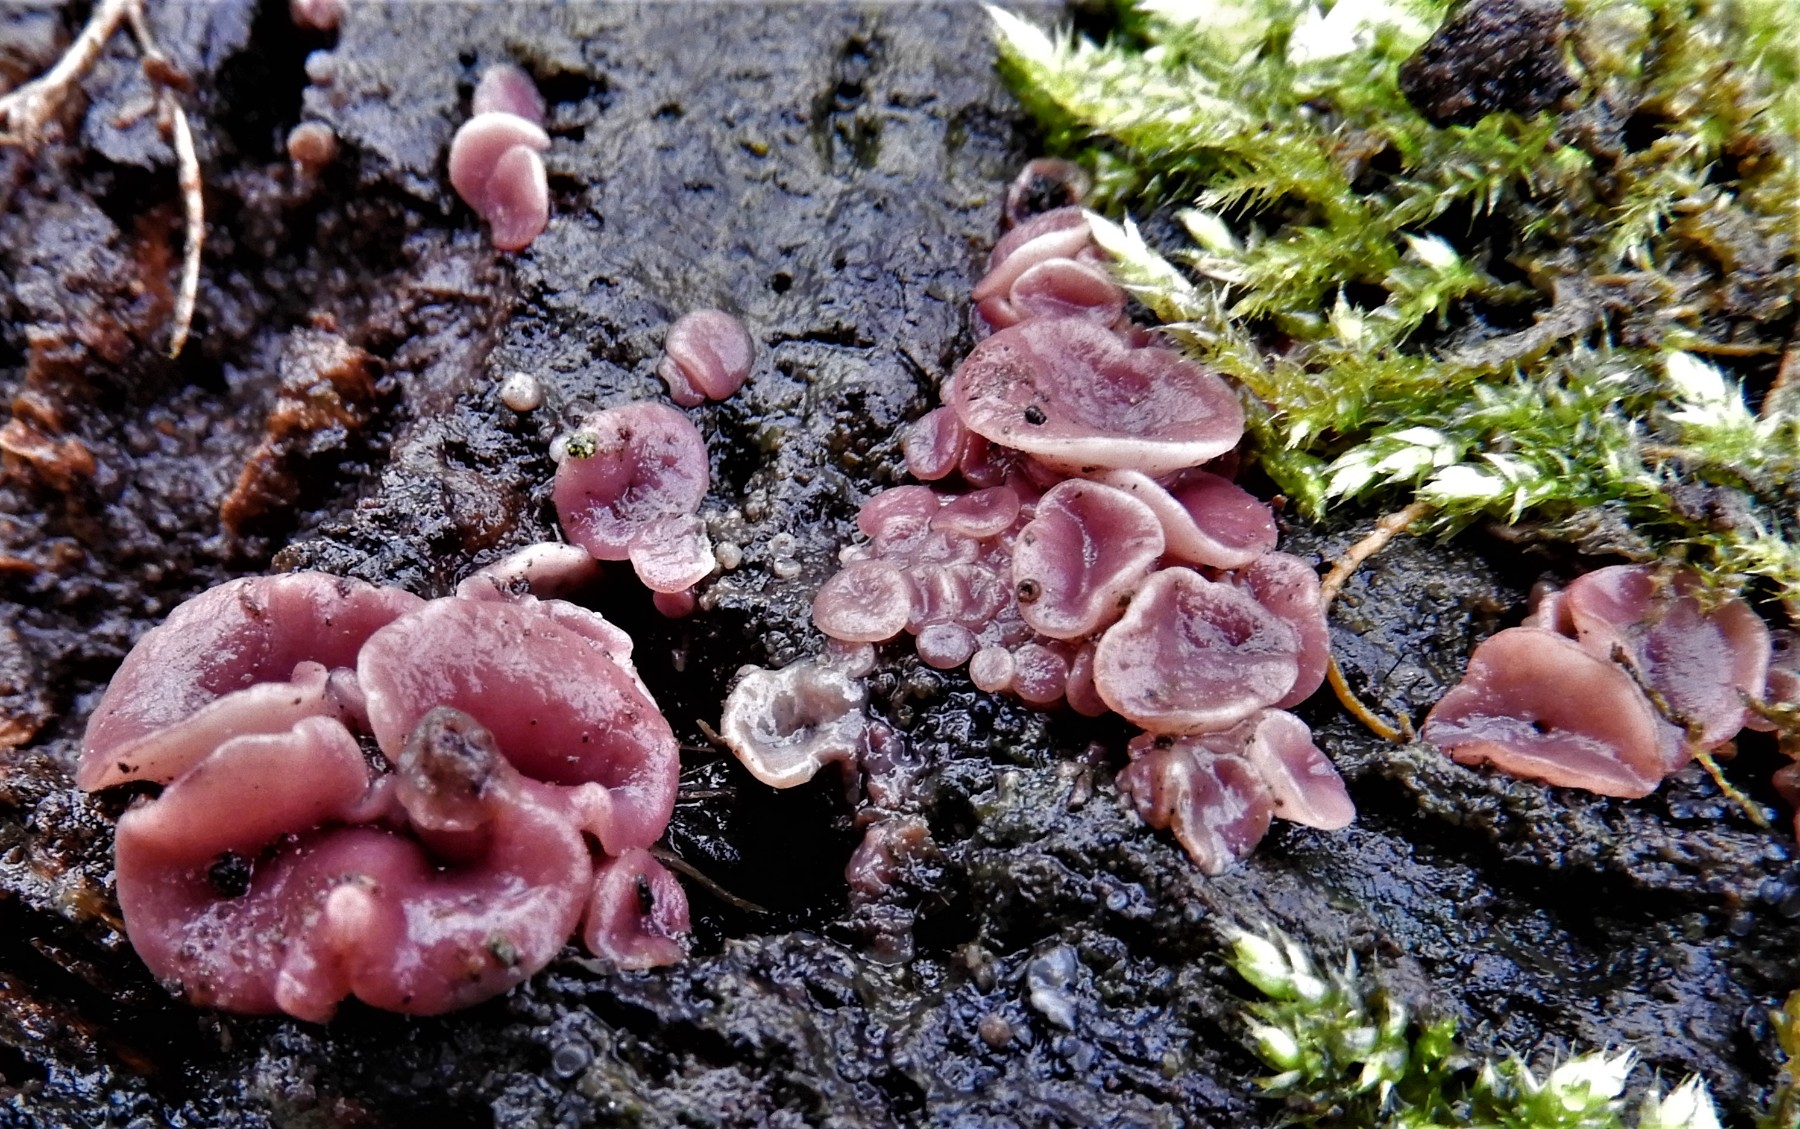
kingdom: Fungi
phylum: Ascomycota
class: Leotiomycetes
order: Helotiales
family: Gelatinodiscaceae
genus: Ascocoryne
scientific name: Ascocoryne cylichnium
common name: stor sejskive
